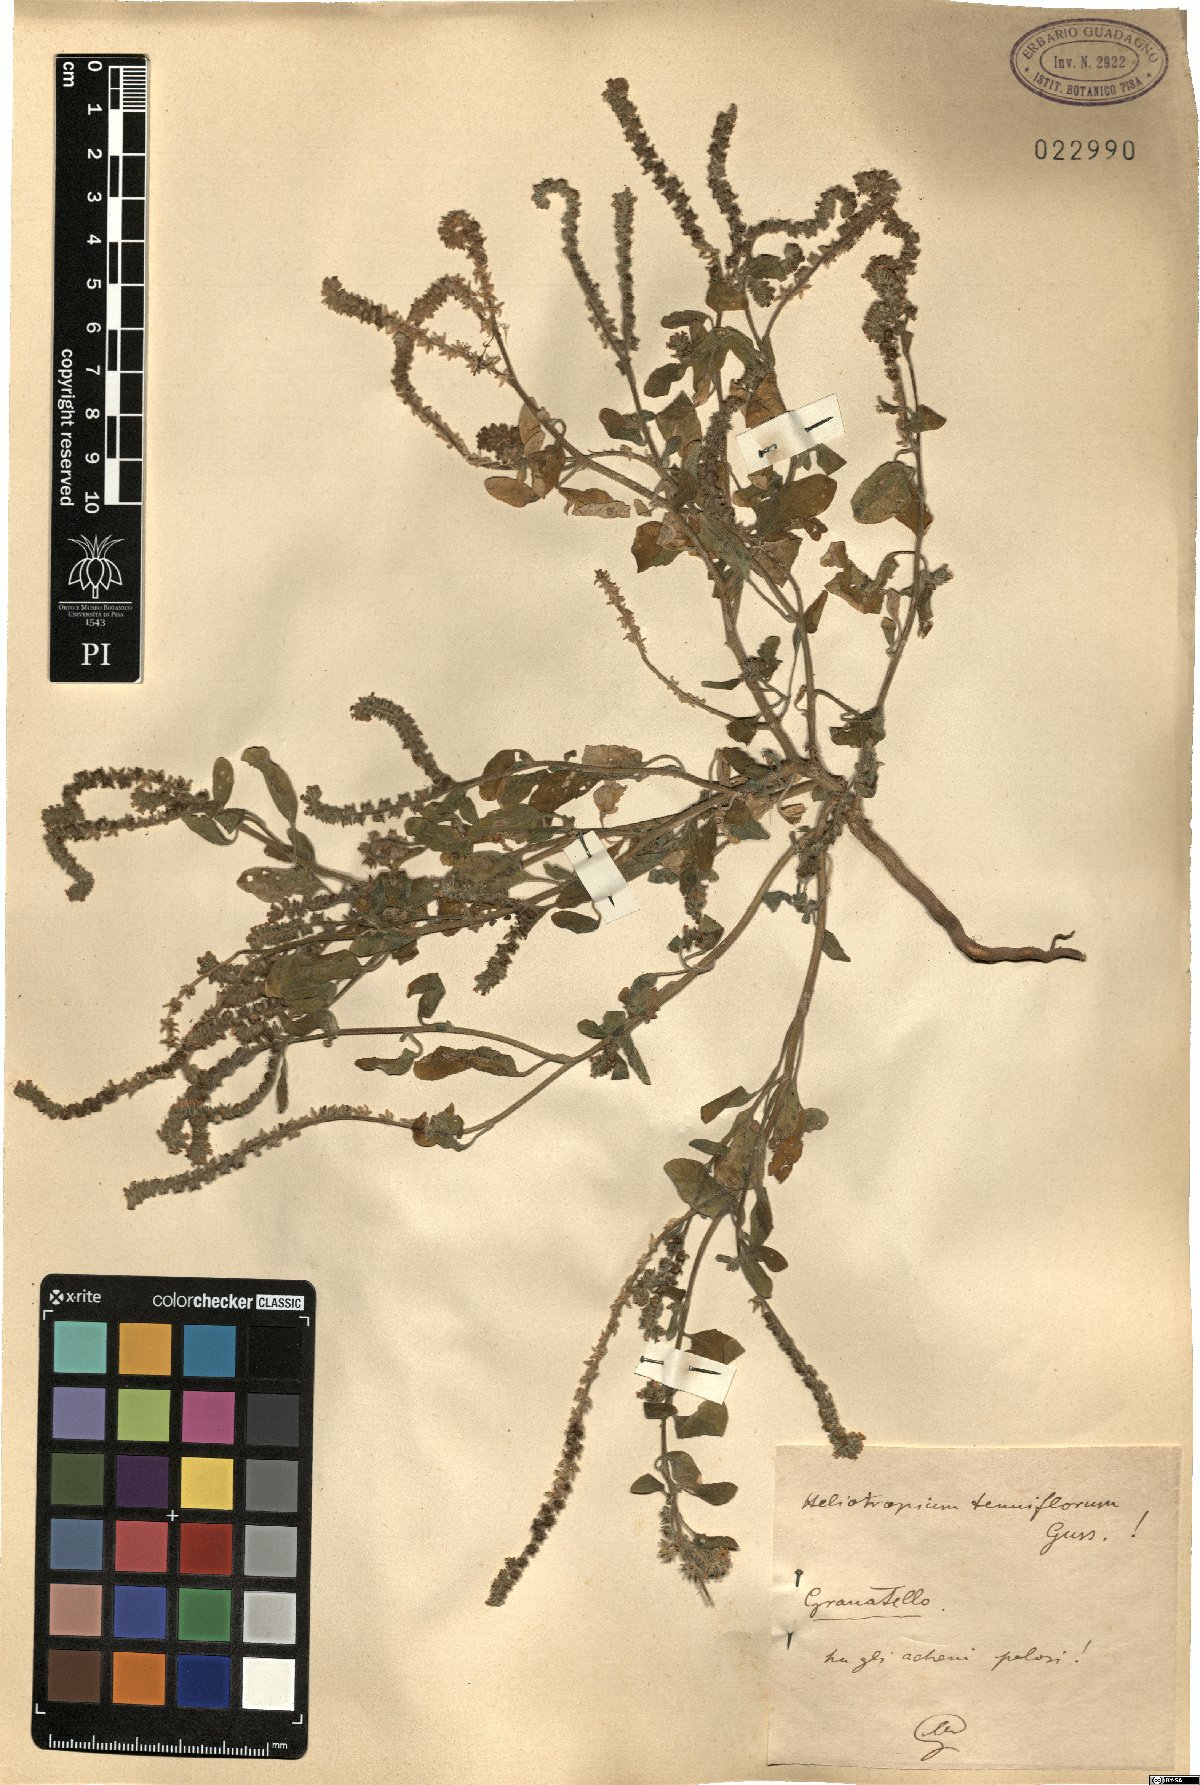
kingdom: Plantae
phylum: Tracheophyta
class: Magnoliopsida
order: Boraginales
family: Heliotropiaceae
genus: Heliotropium
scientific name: Heliotropium
